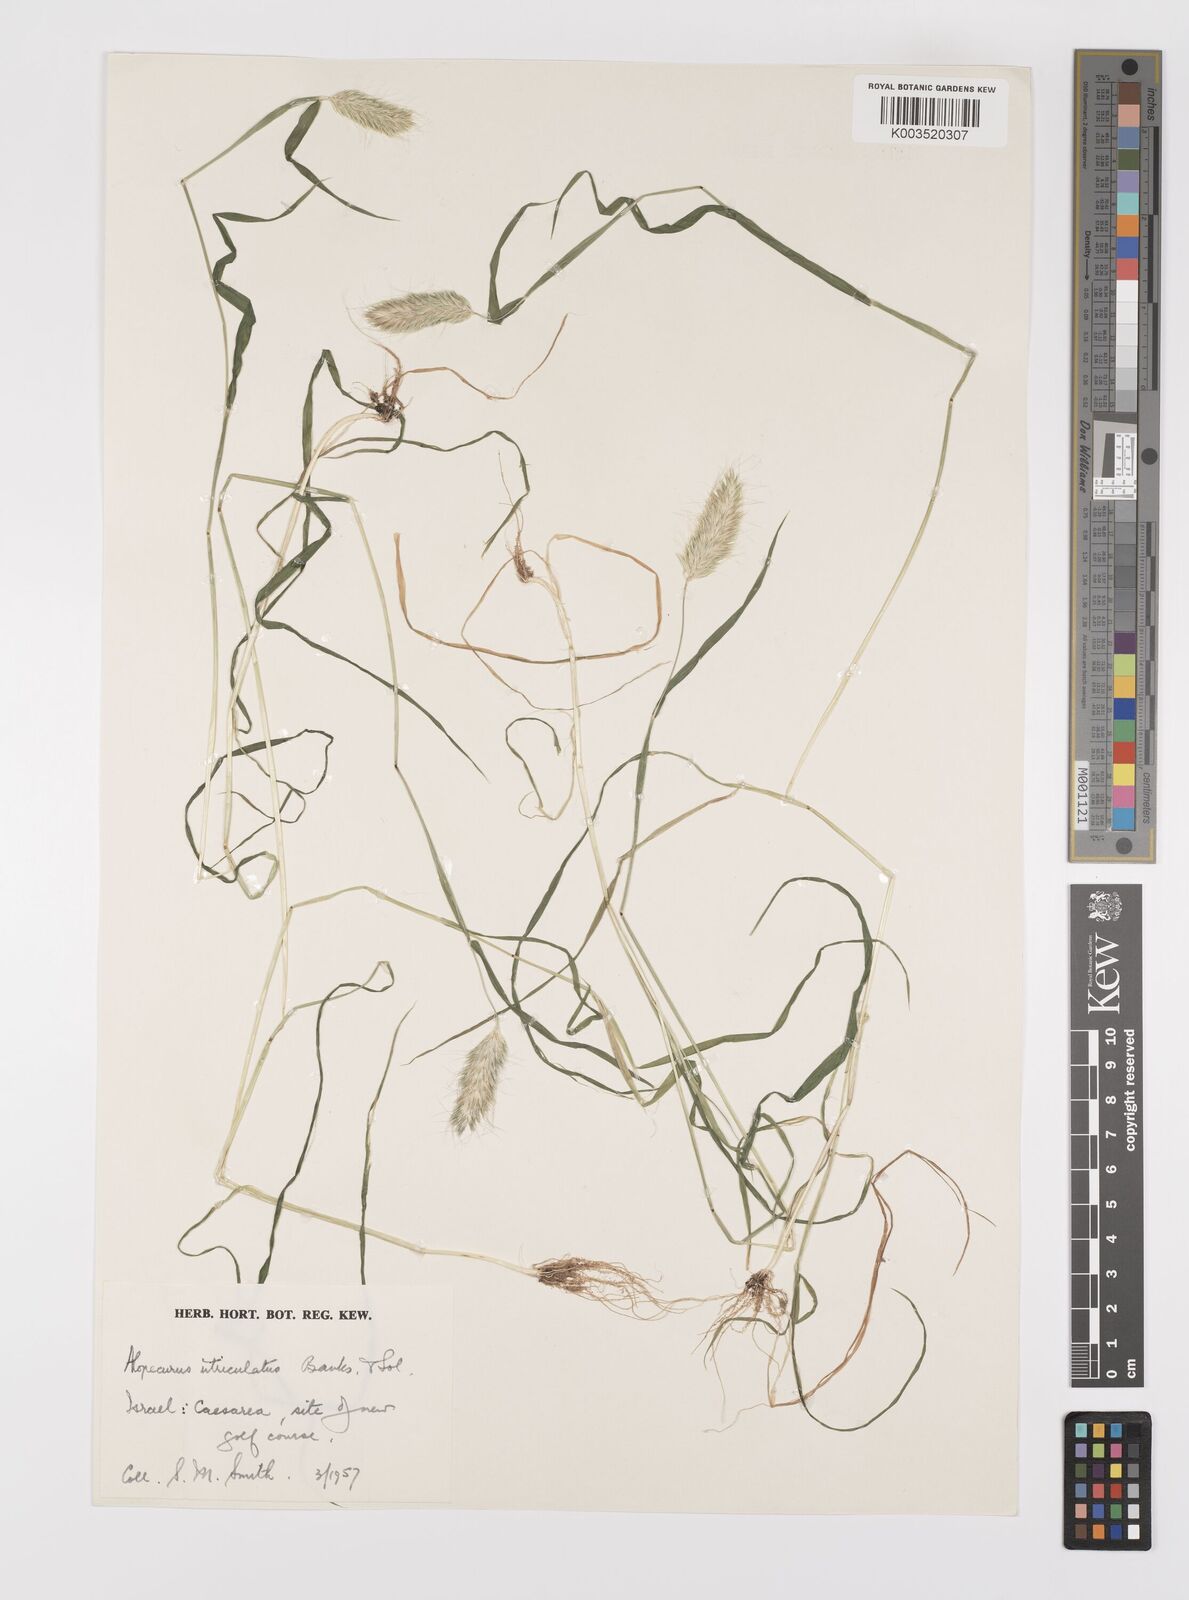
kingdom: Plantae
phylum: Tracheophyta
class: Liliopsida
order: Poales
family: Poaceae
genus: Alopecurus
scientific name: Alopecurus utriculatus
